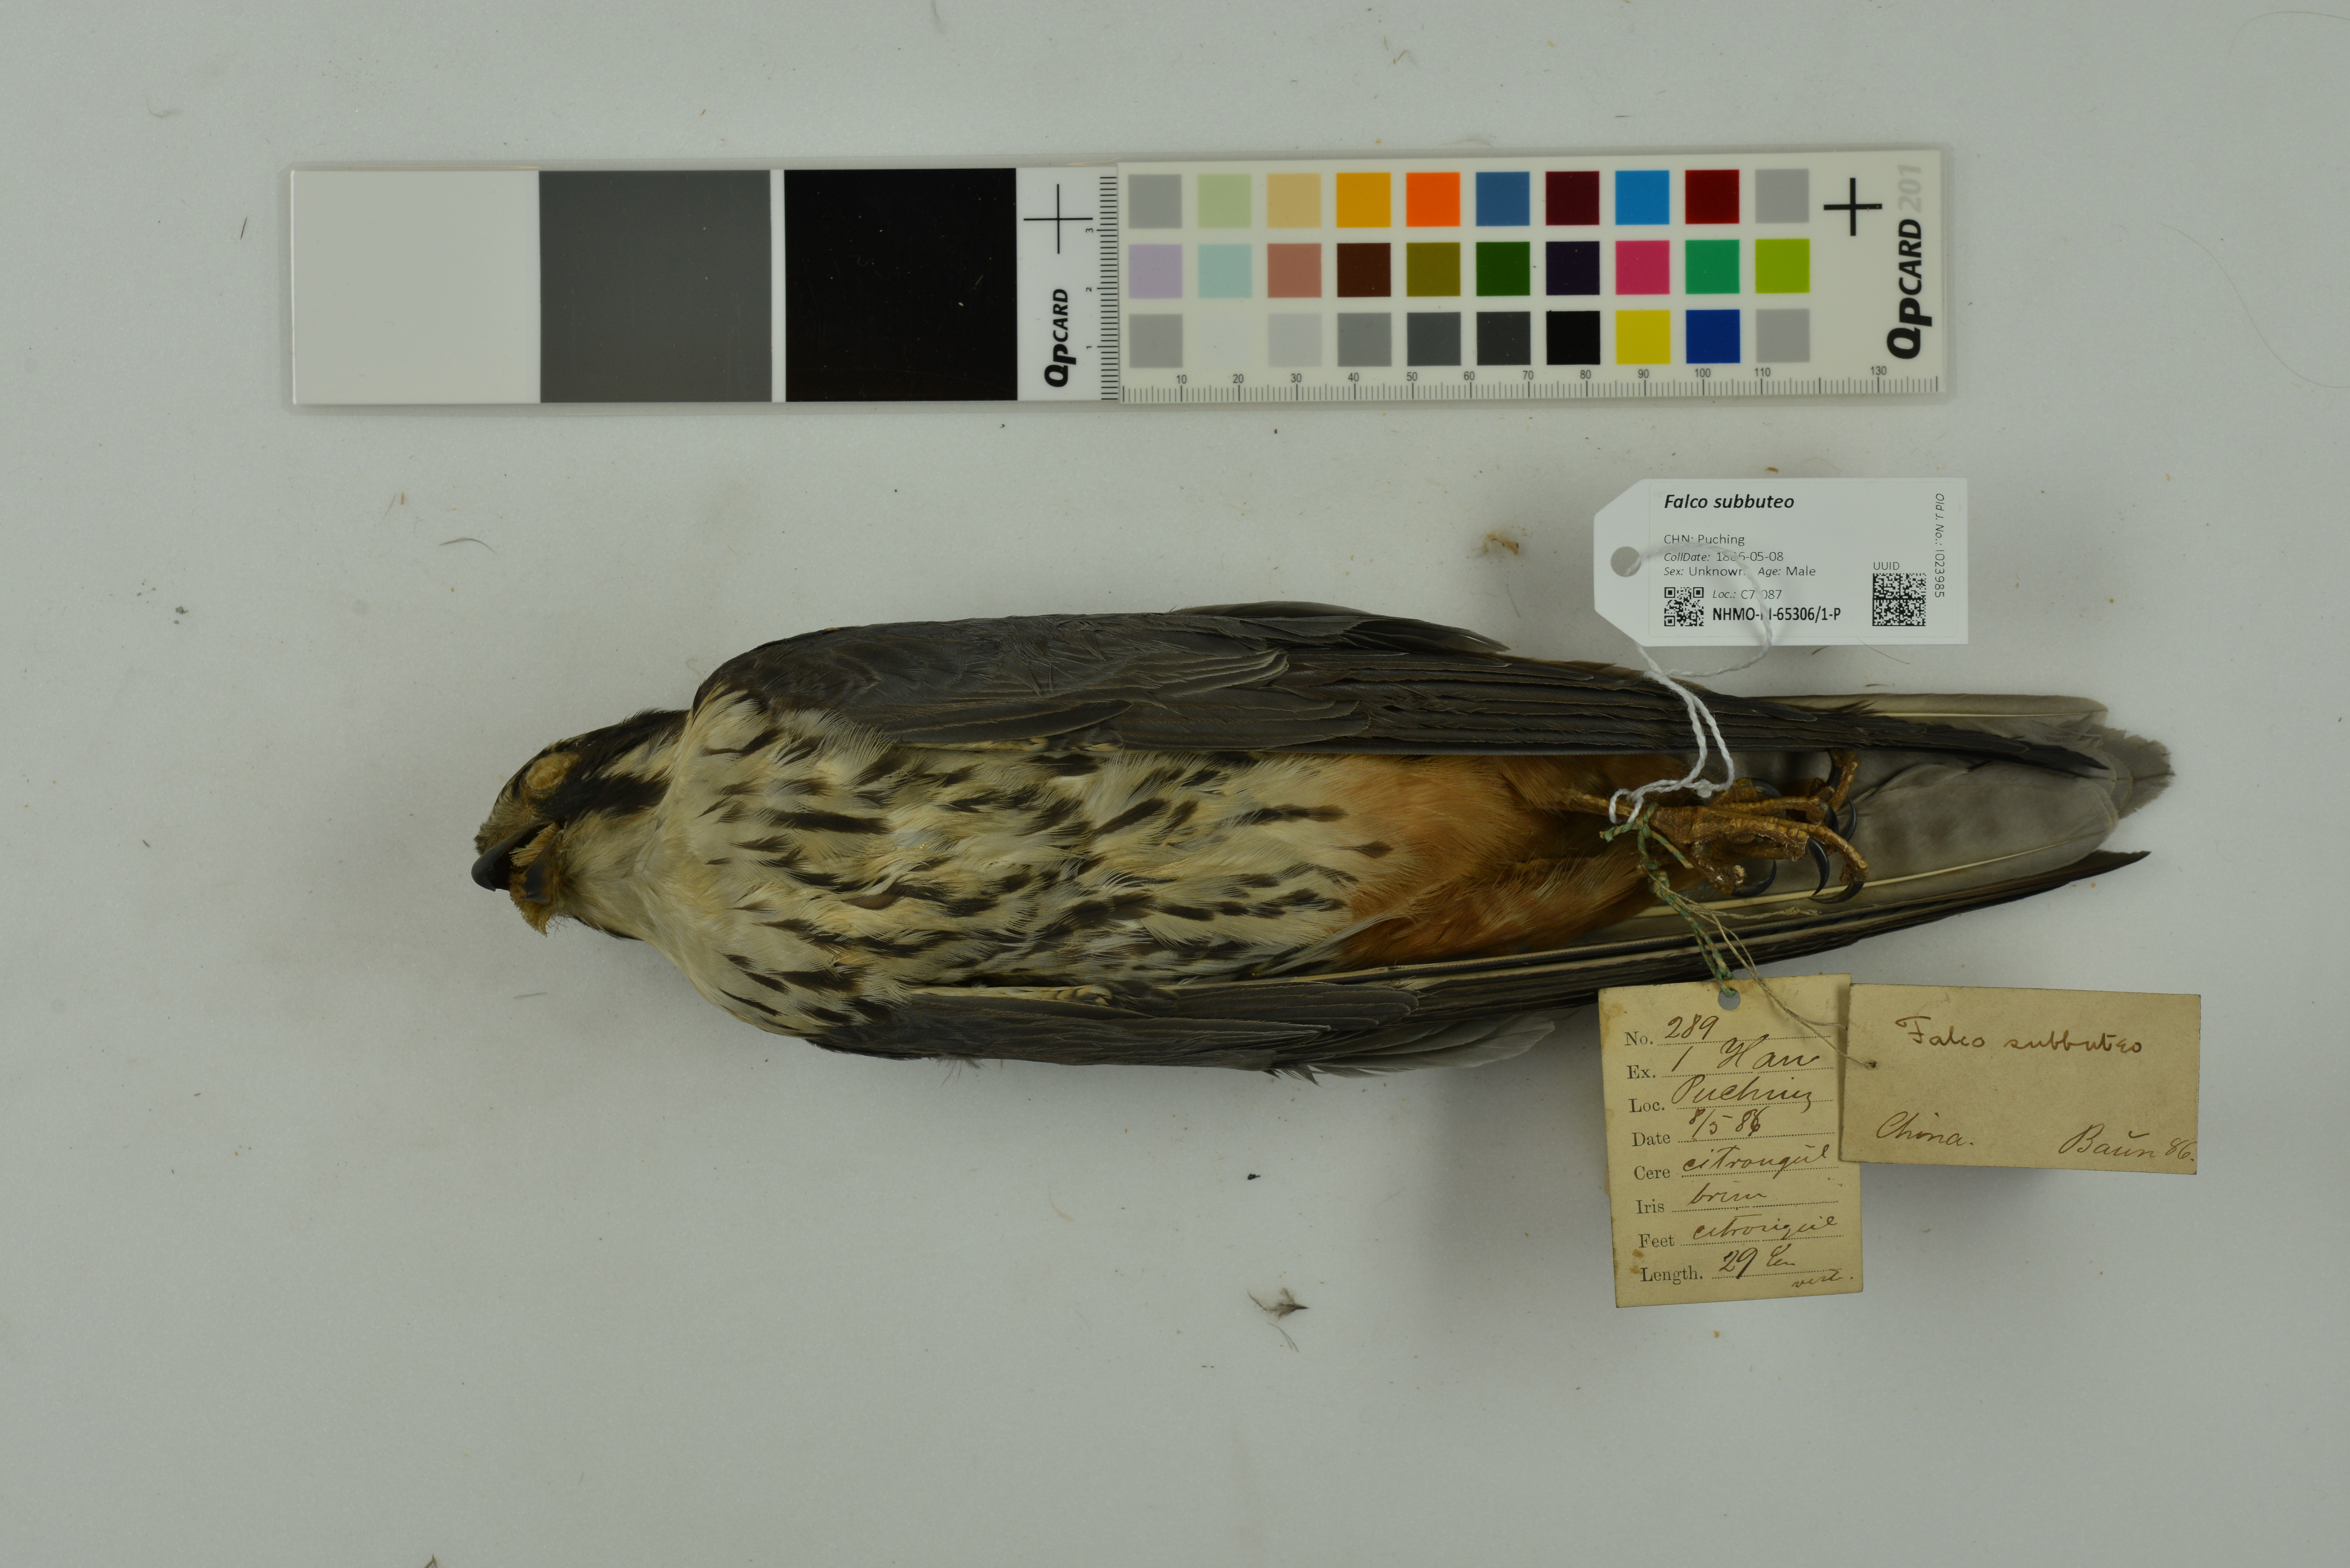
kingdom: Animalia
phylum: Chordata
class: Aves
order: Falconiformes
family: Falconidae
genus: Falco
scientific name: Falco subbuteo
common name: Eurasian hobby
